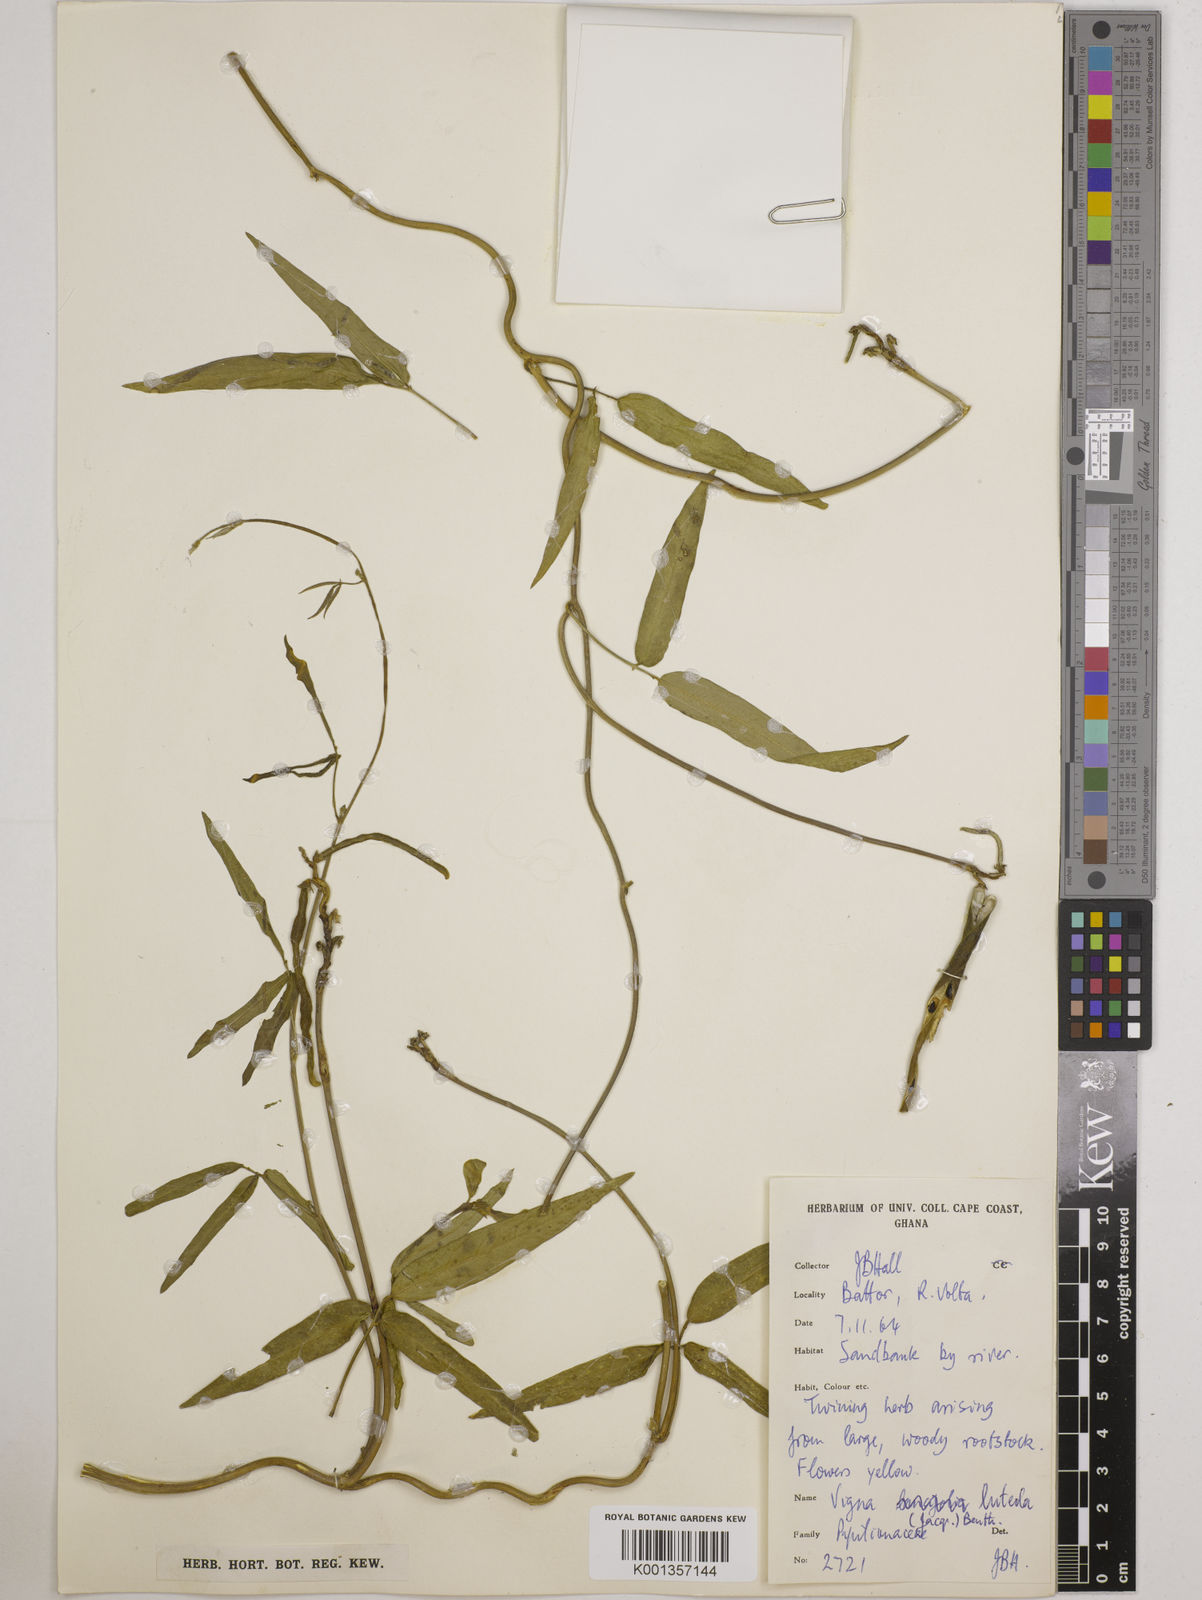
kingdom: Plantae
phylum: Tracheophyta
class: Magnoliopsida
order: Fabales
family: Fabaceae
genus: Vigna
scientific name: Vigna luteola
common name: Hairypod cowpea
